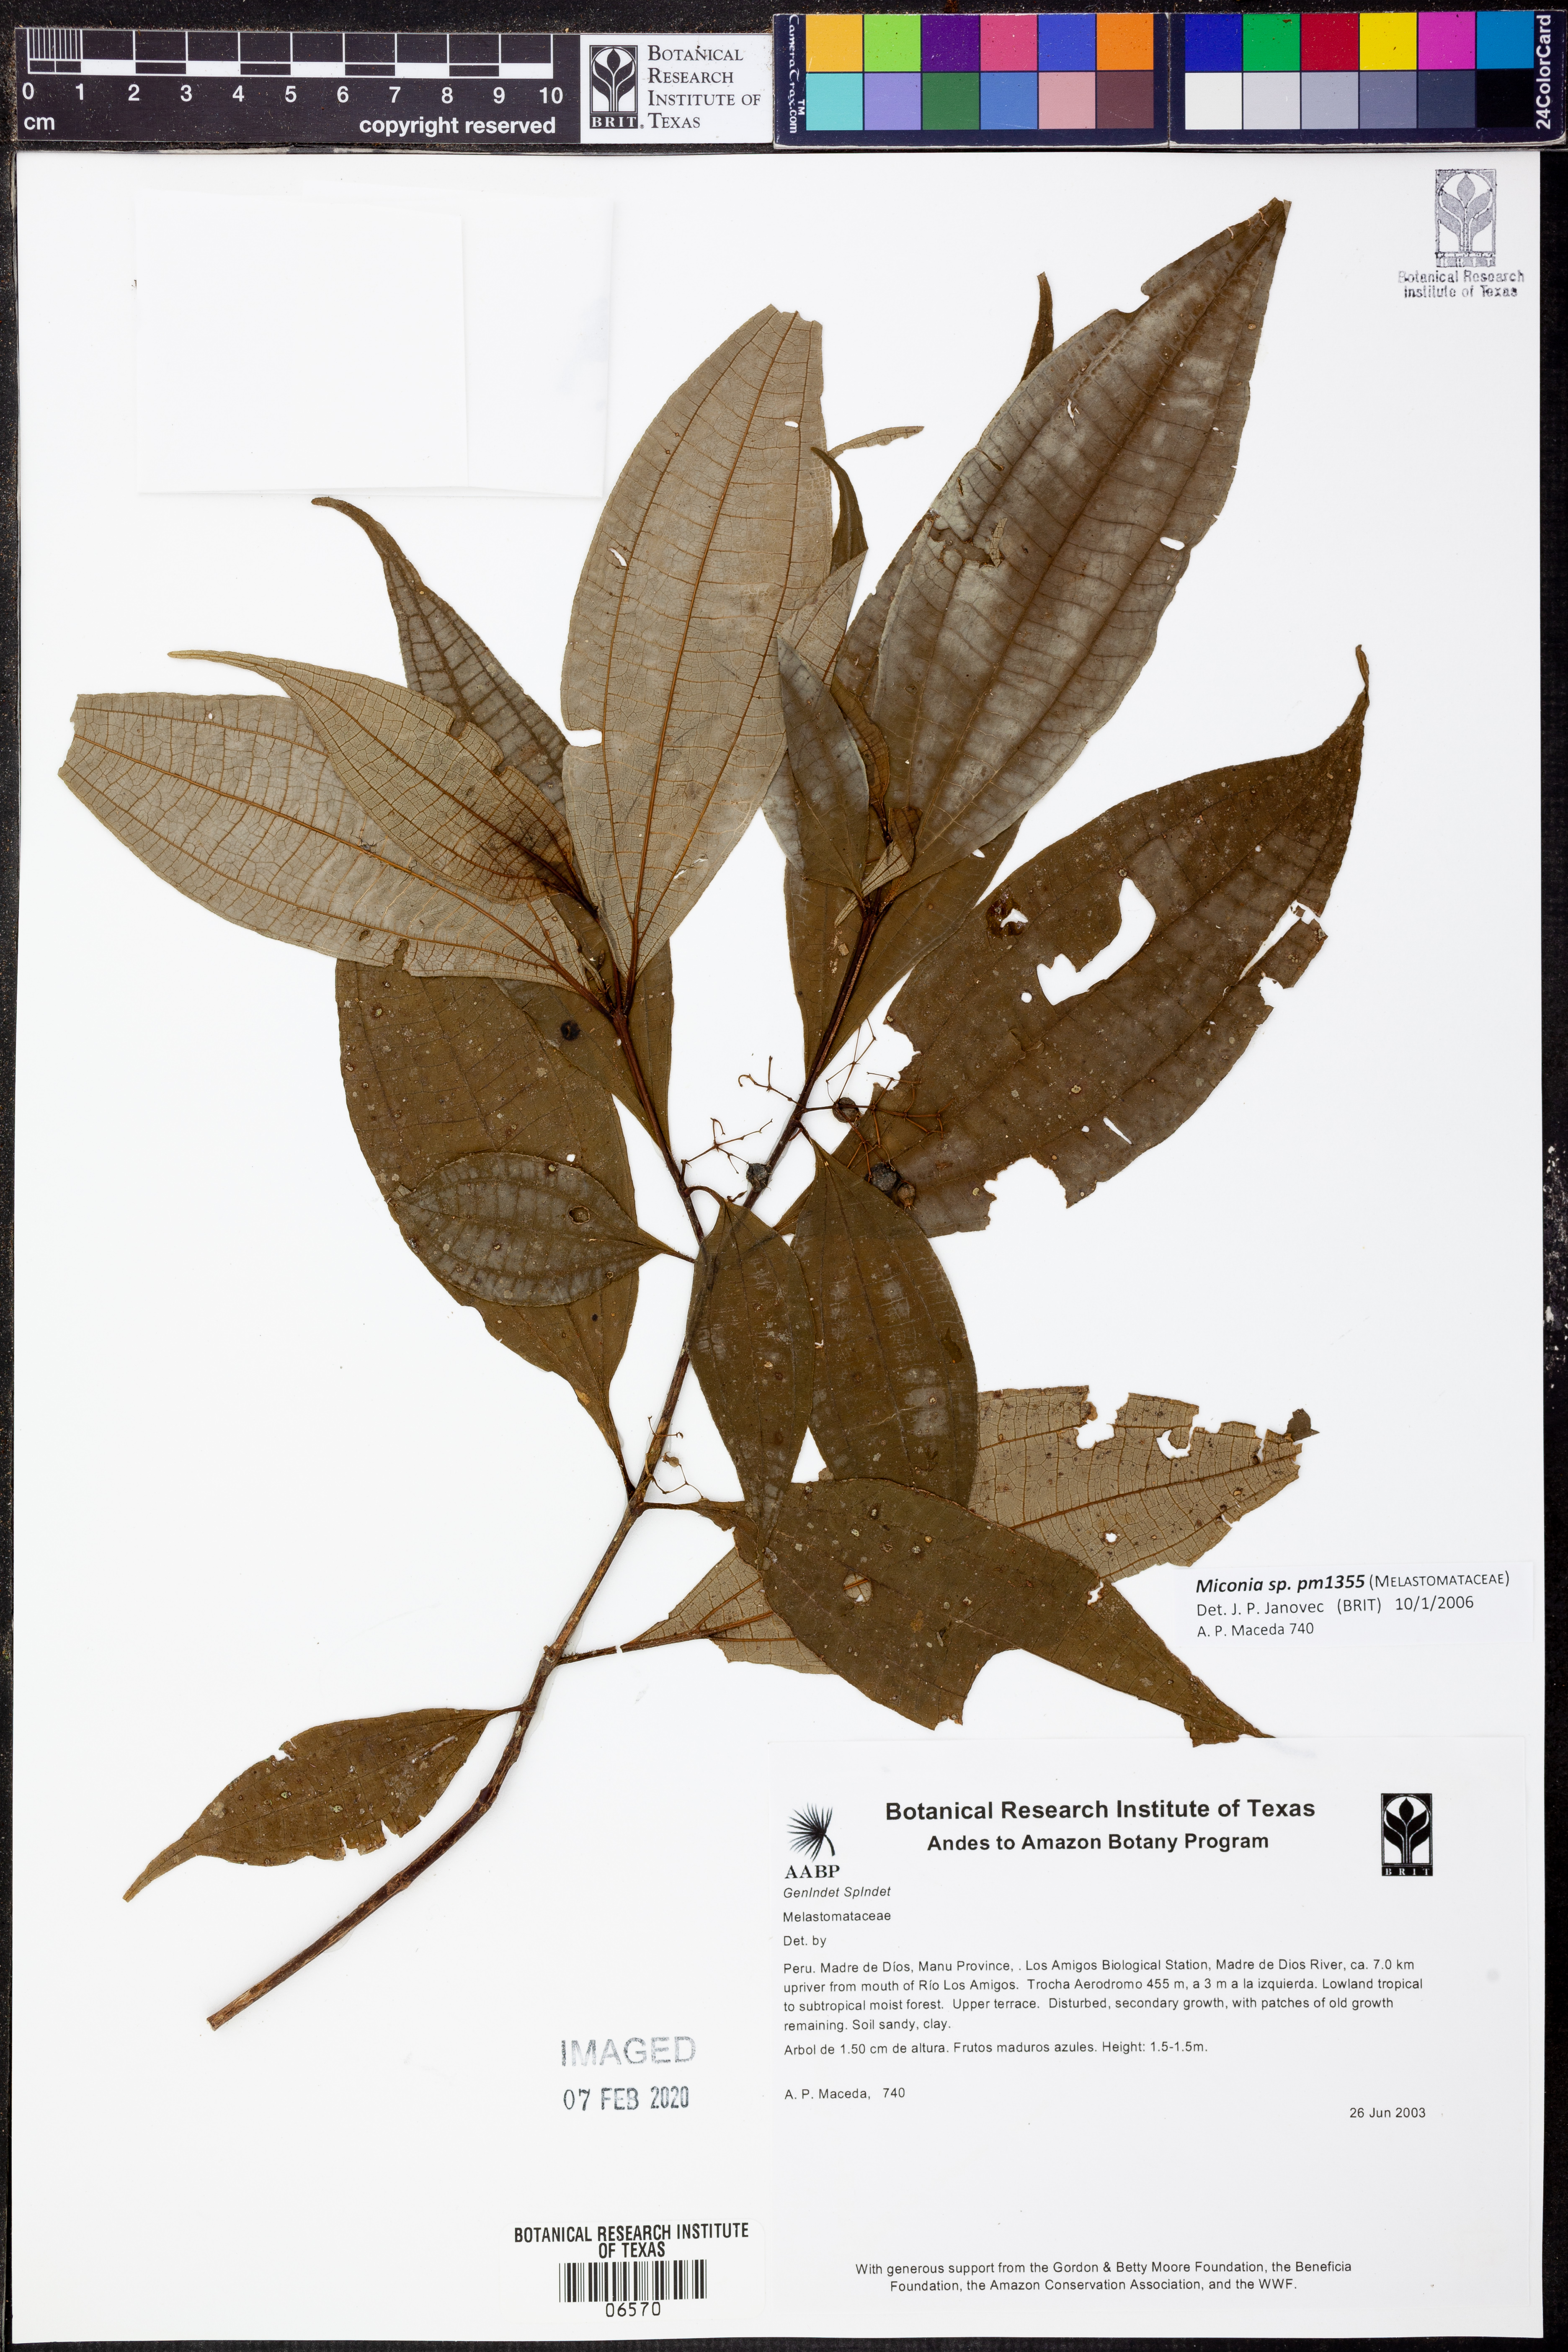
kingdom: Plantae
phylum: Tracheophyta
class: Magnoliopsida
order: Myrtales
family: Melastomataceae
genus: Miconia
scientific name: Miconia
